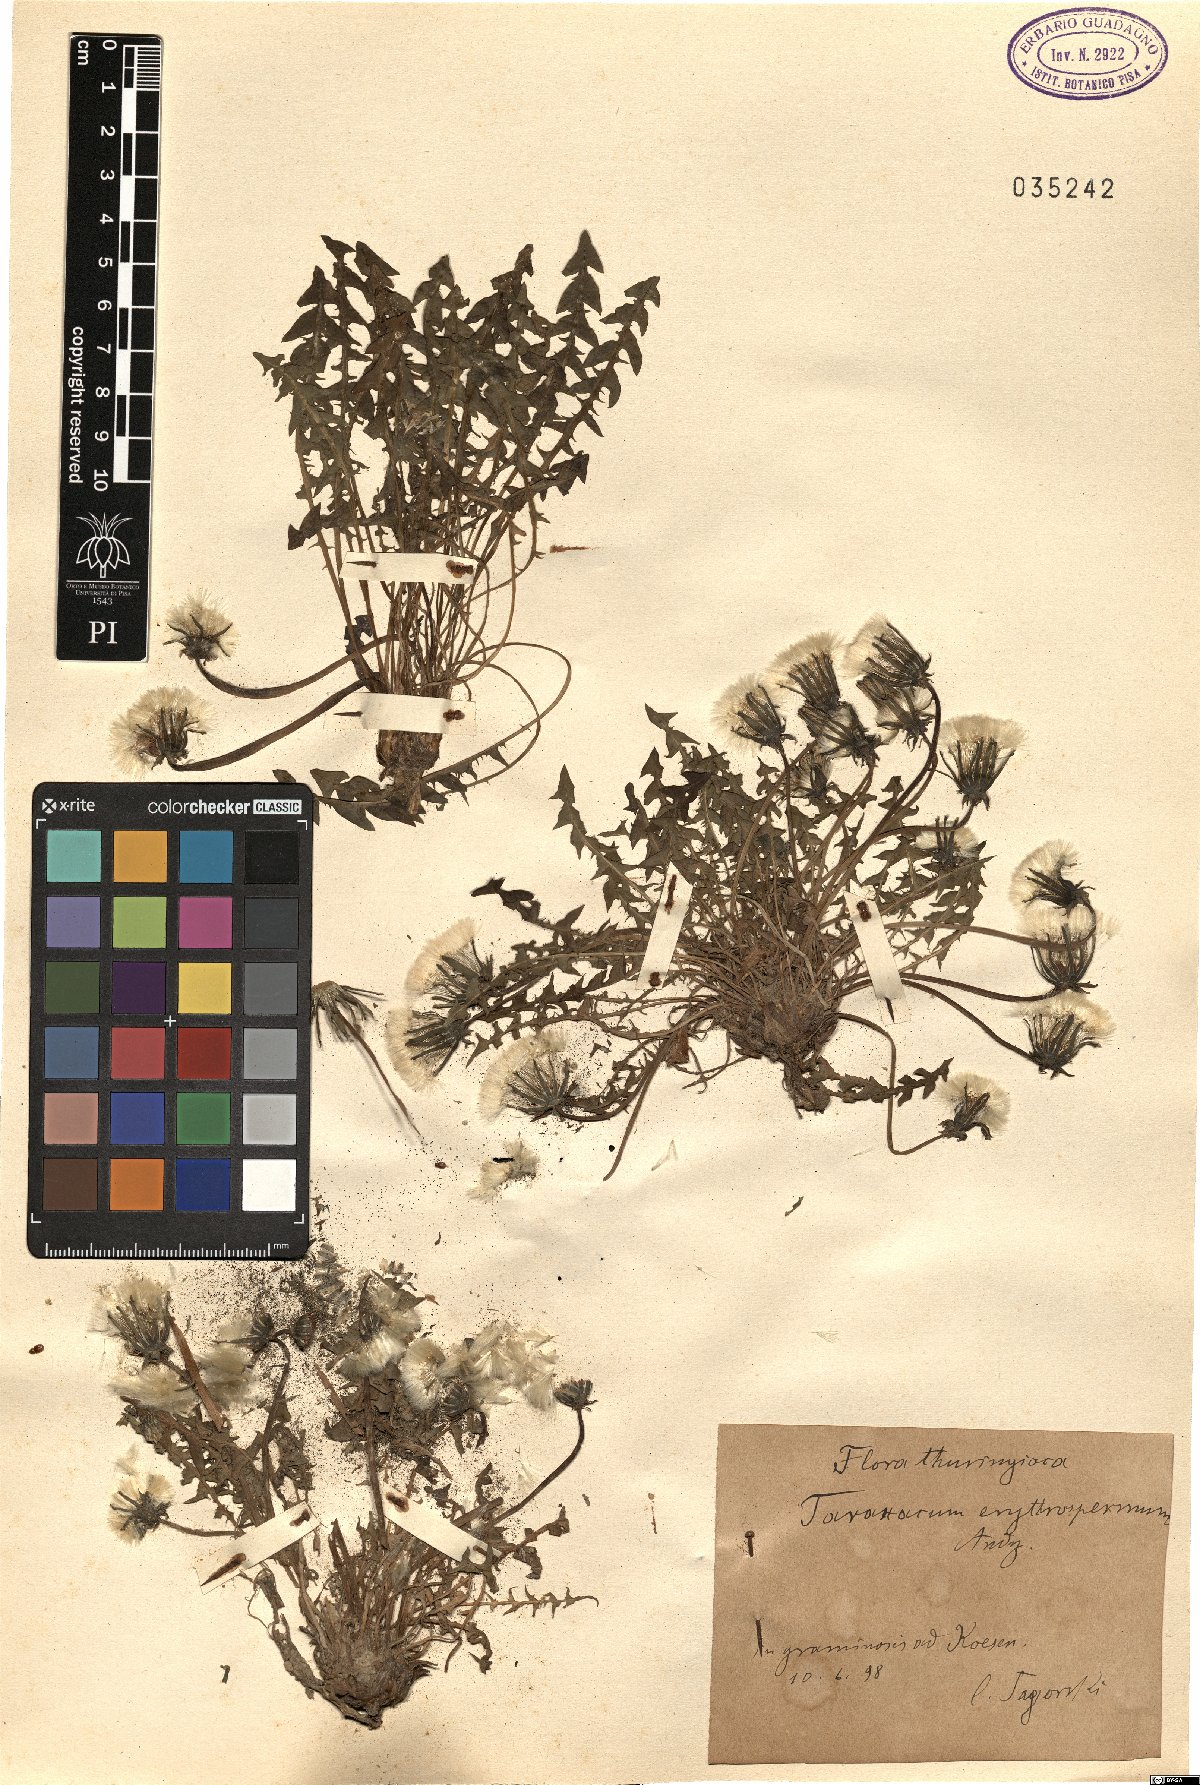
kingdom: Plantae
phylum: Tracheophyta
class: Magnoliopsida
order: Asterales
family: Asteraceae
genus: Taraxacum
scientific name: Taraxacum erythrospermum
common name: Rock dandelion
